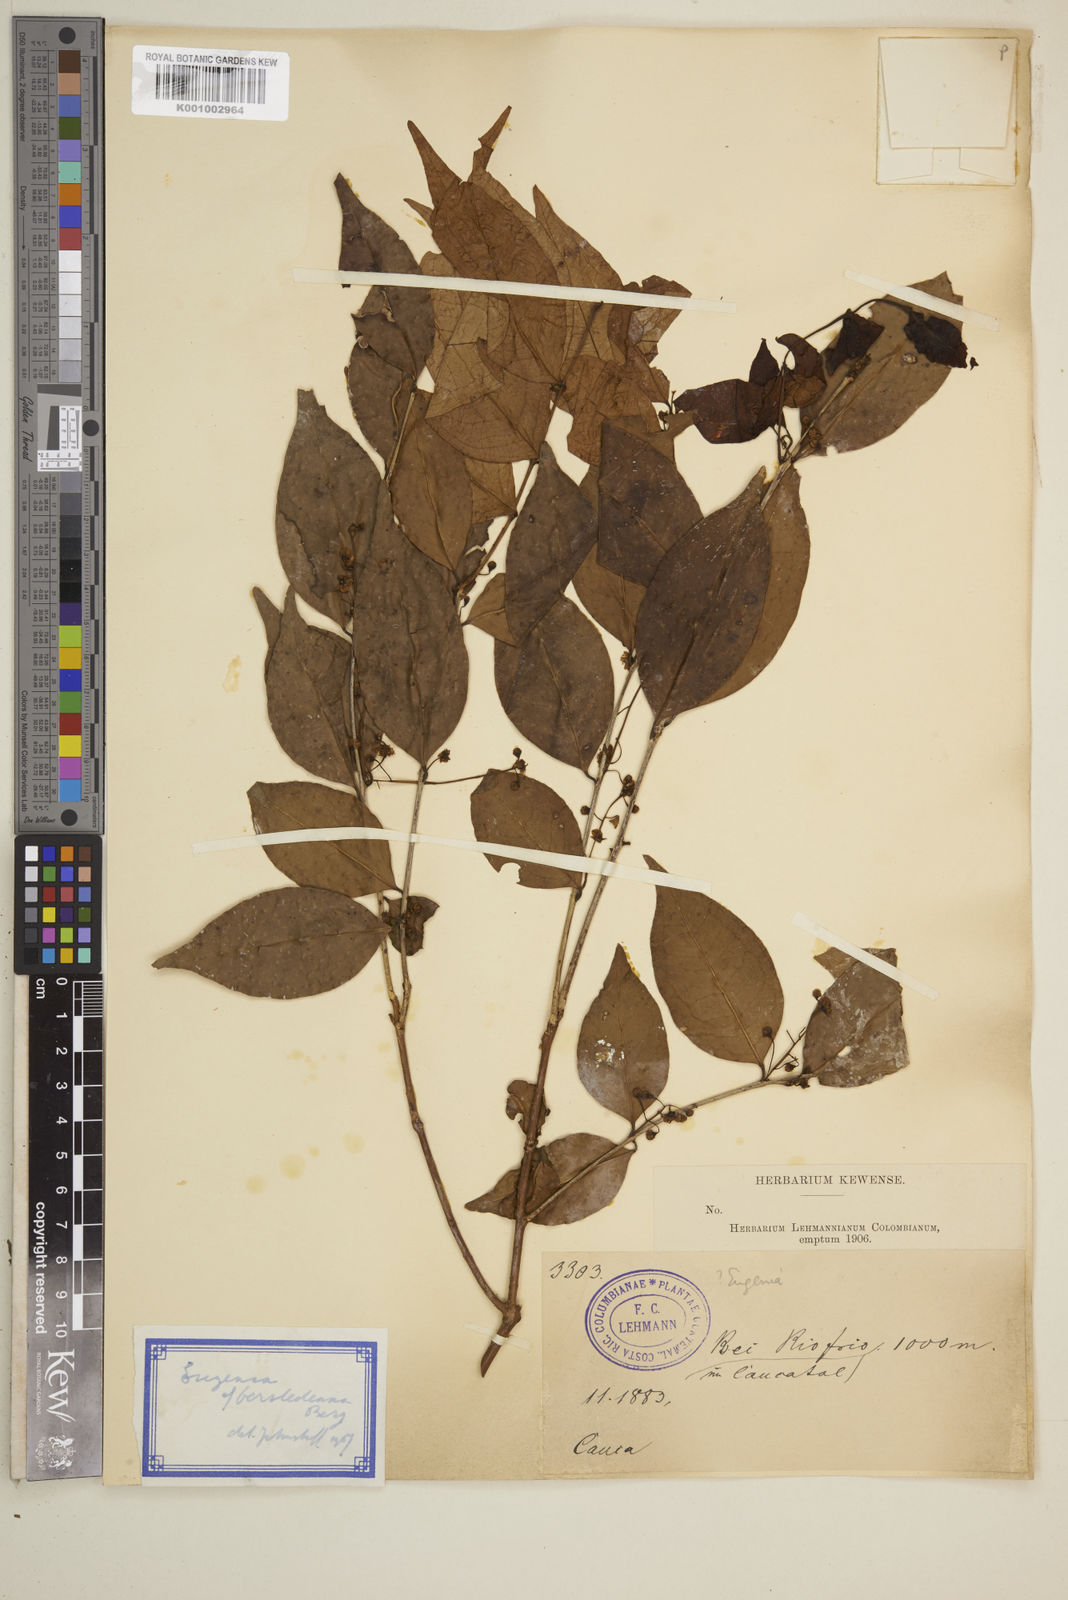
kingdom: Plantae
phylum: Tracheophyta
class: Magnoliopsida
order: Myrtales
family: Myrtaceae
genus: Eugenia
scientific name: Eugenia oerstediana
